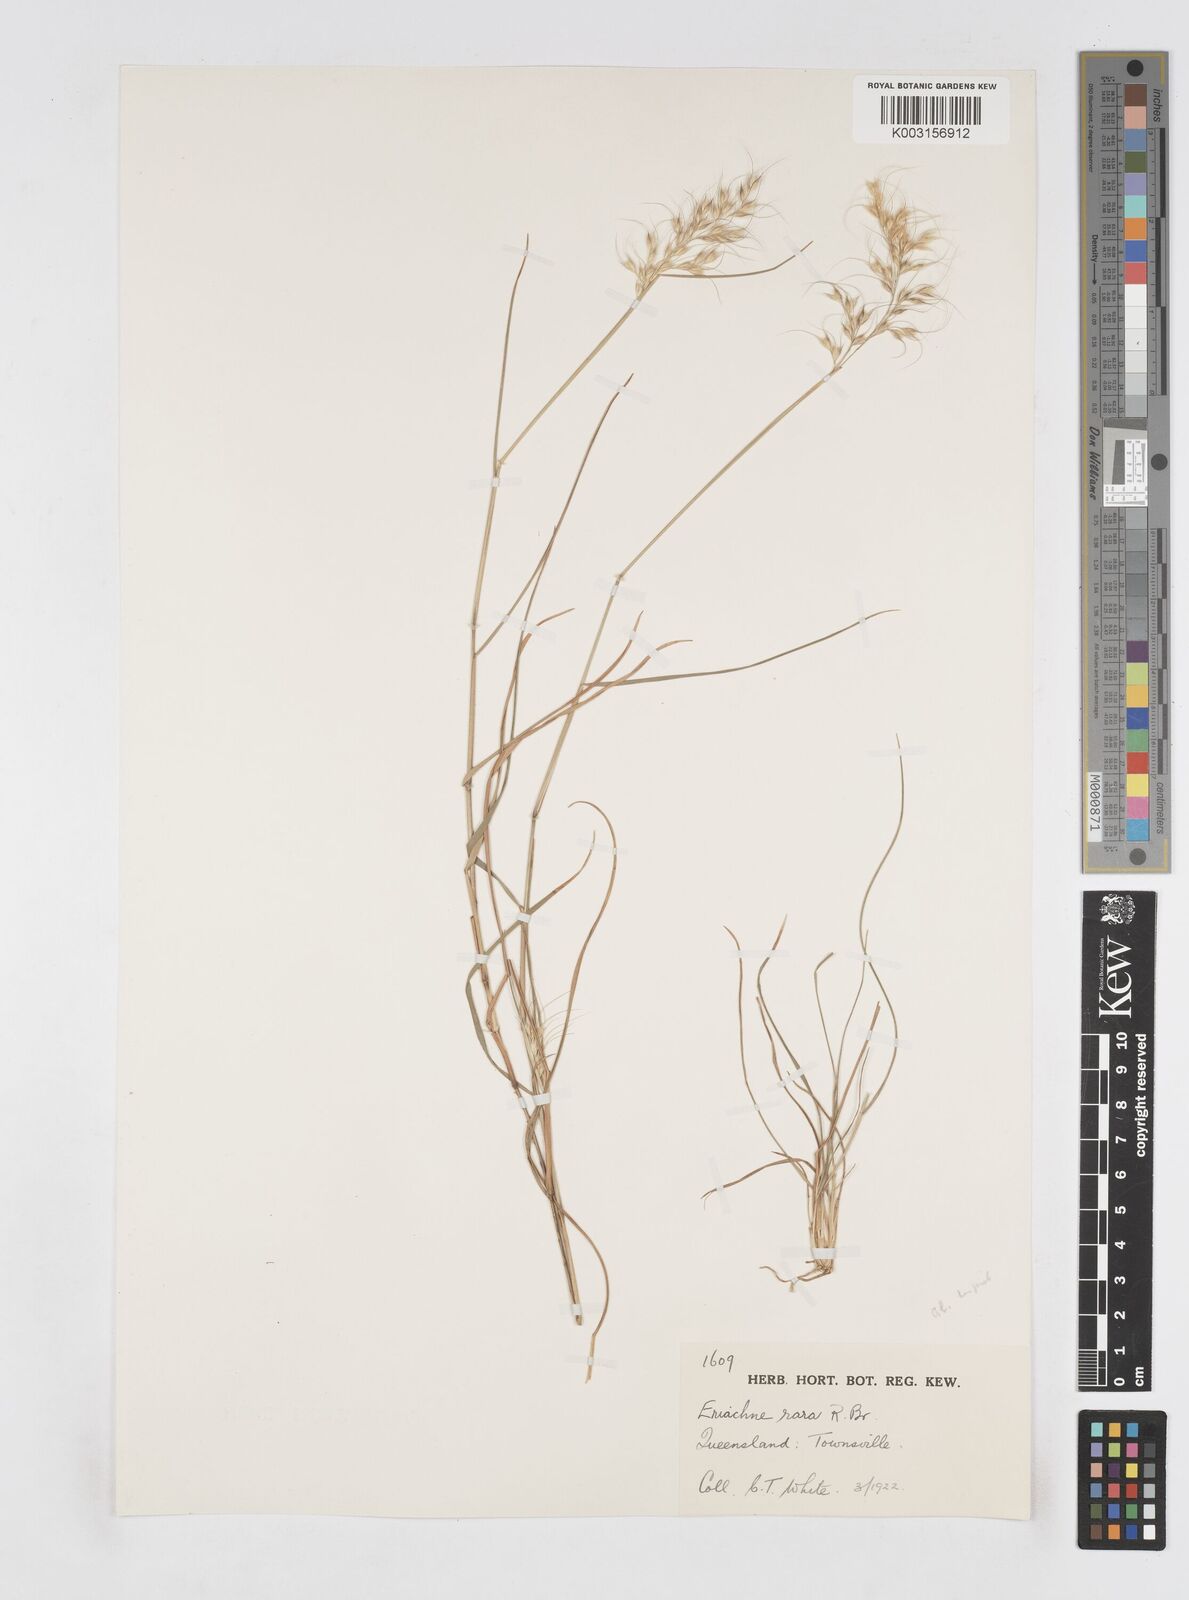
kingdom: Plantae
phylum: Tracheophyta
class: Liliopsida
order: Poales
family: Poaceae
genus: Eriachne
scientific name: Eriachne rara
